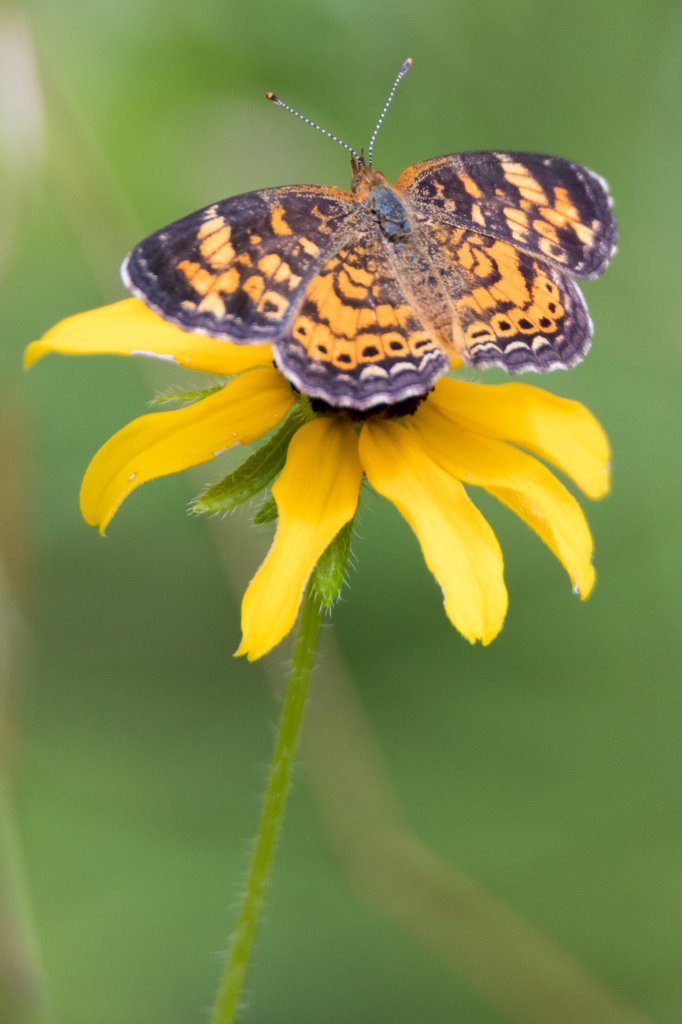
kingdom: Animalia
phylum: Arthropoda
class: Insecta
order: Lepidoptera
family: Nymphalidae
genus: Phyciodes
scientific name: Phyciodes tharos
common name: Pearl Crescent
